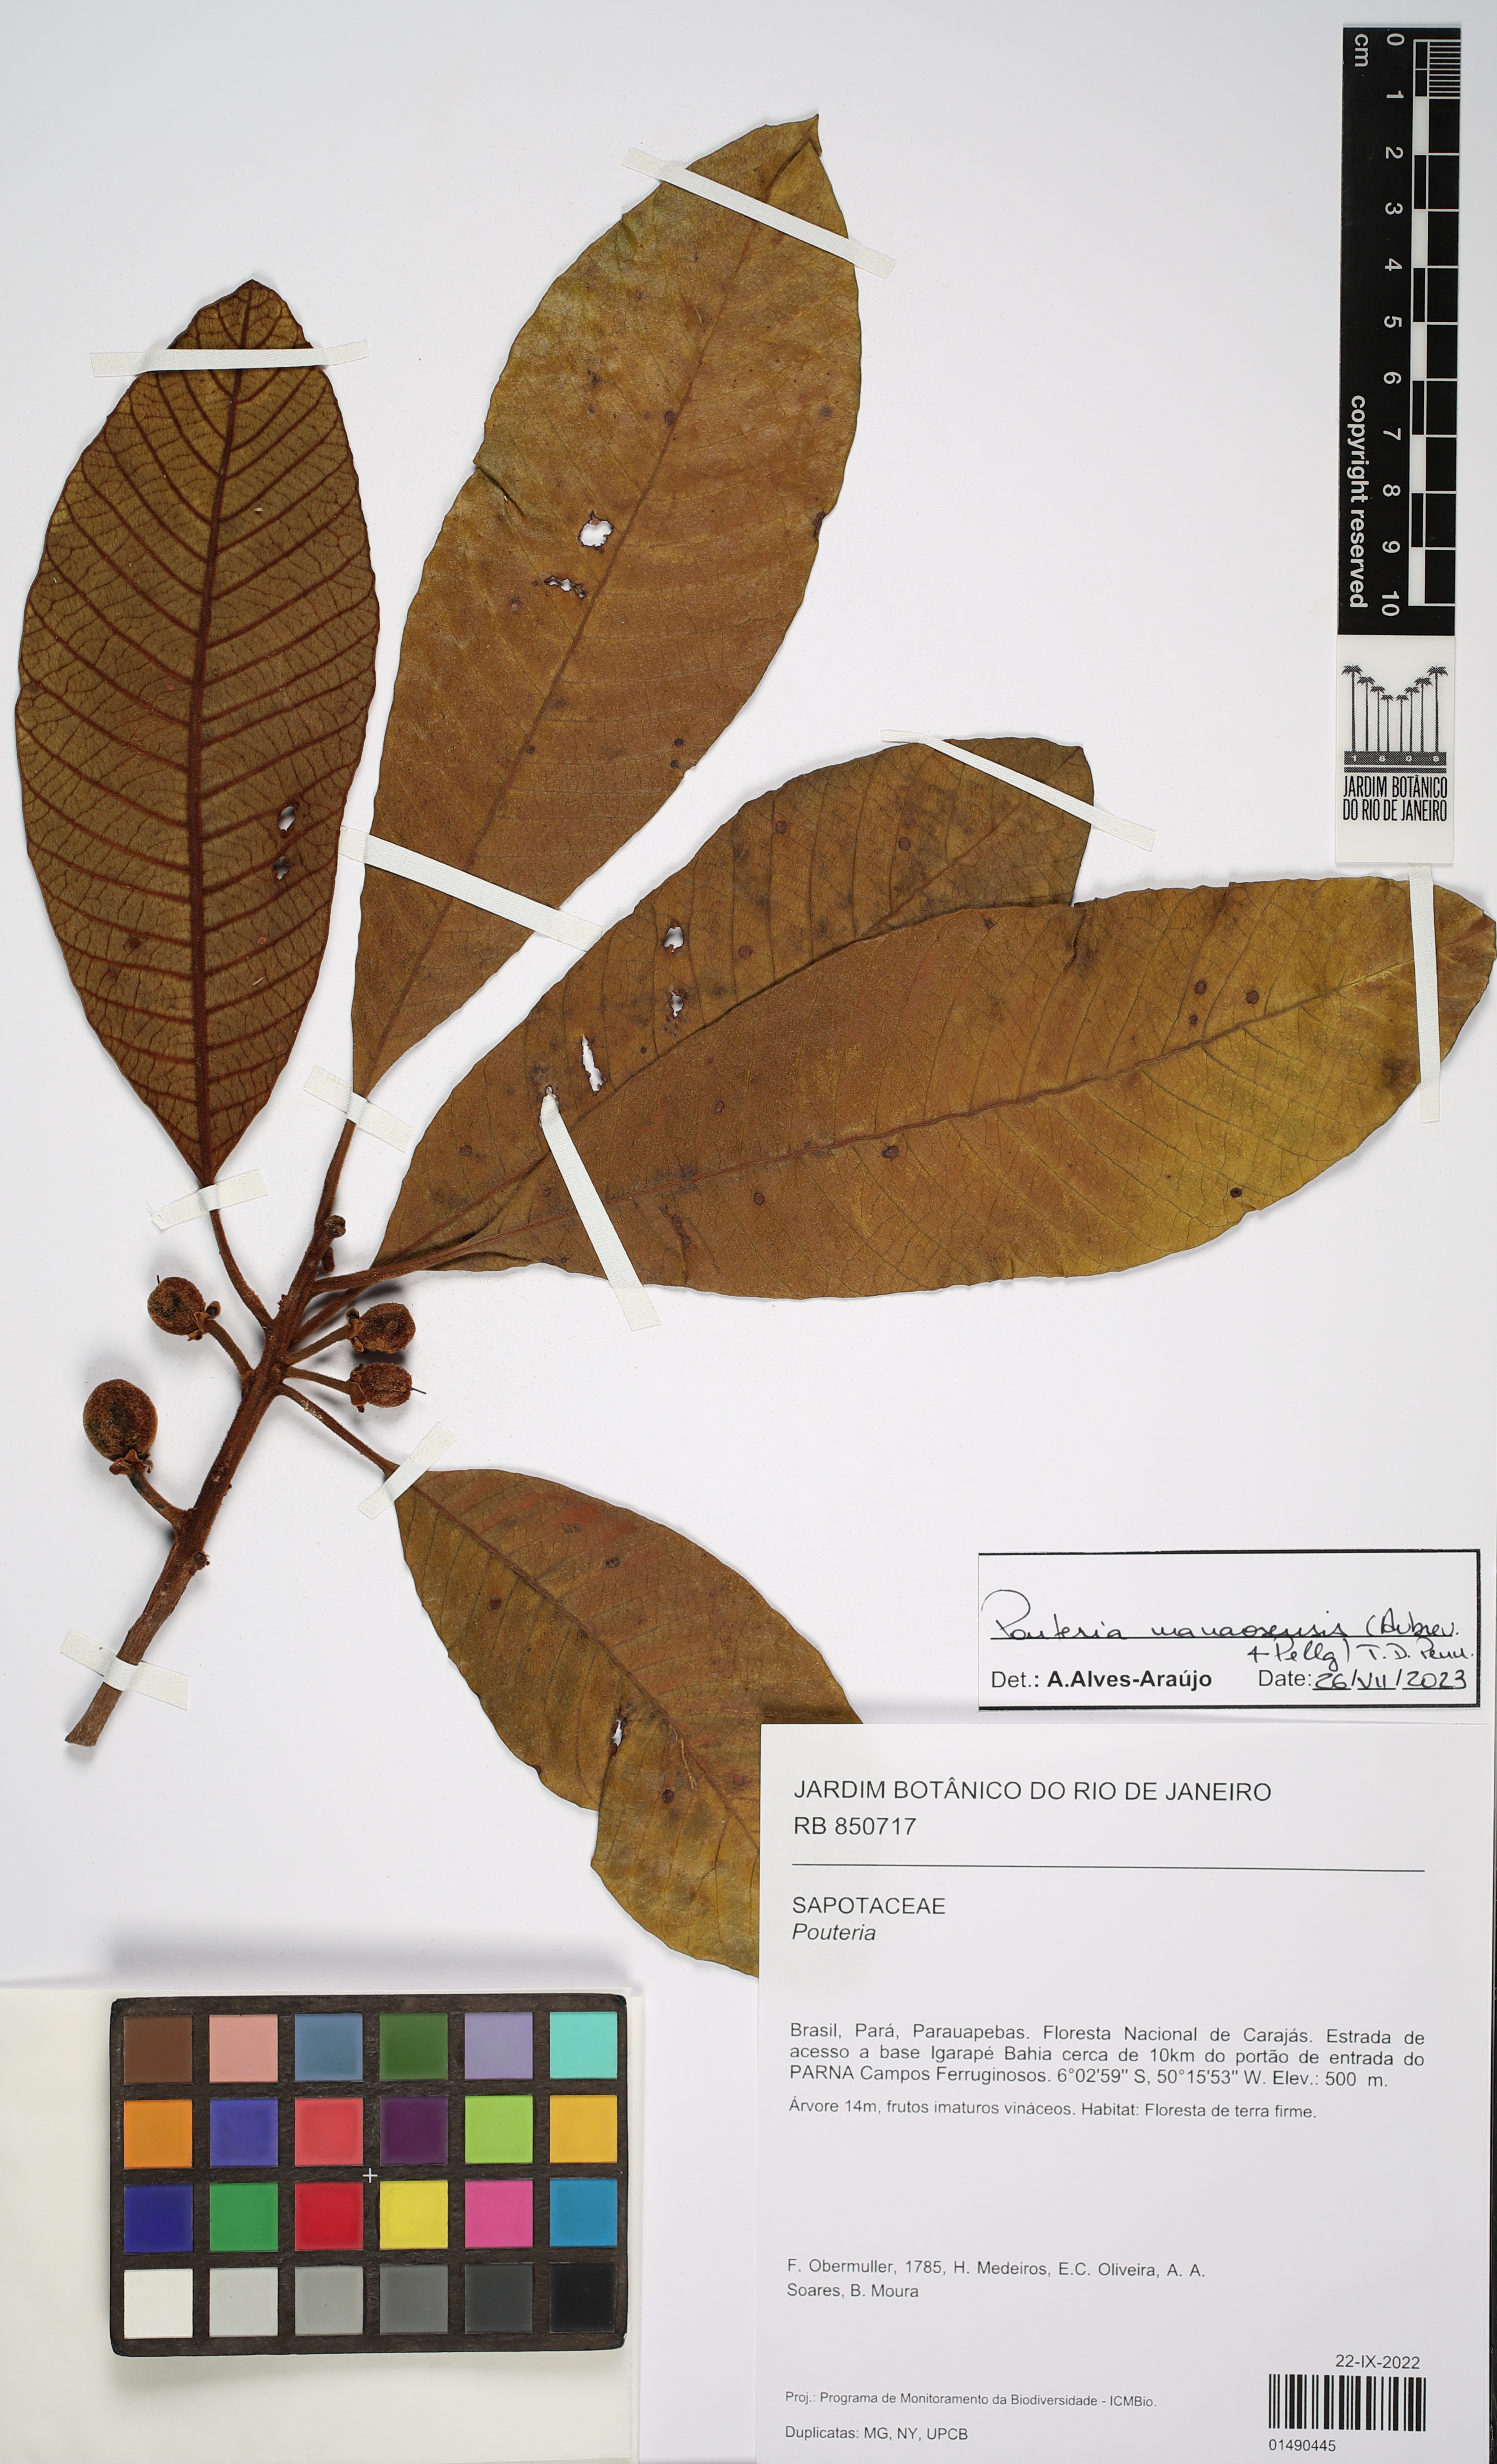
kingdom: Plantae
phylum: Tracheophyta
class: Magnoliopsida
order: Ericales
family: Sapotaceae
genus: Pouteria
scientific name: Pouteria manaosensis
